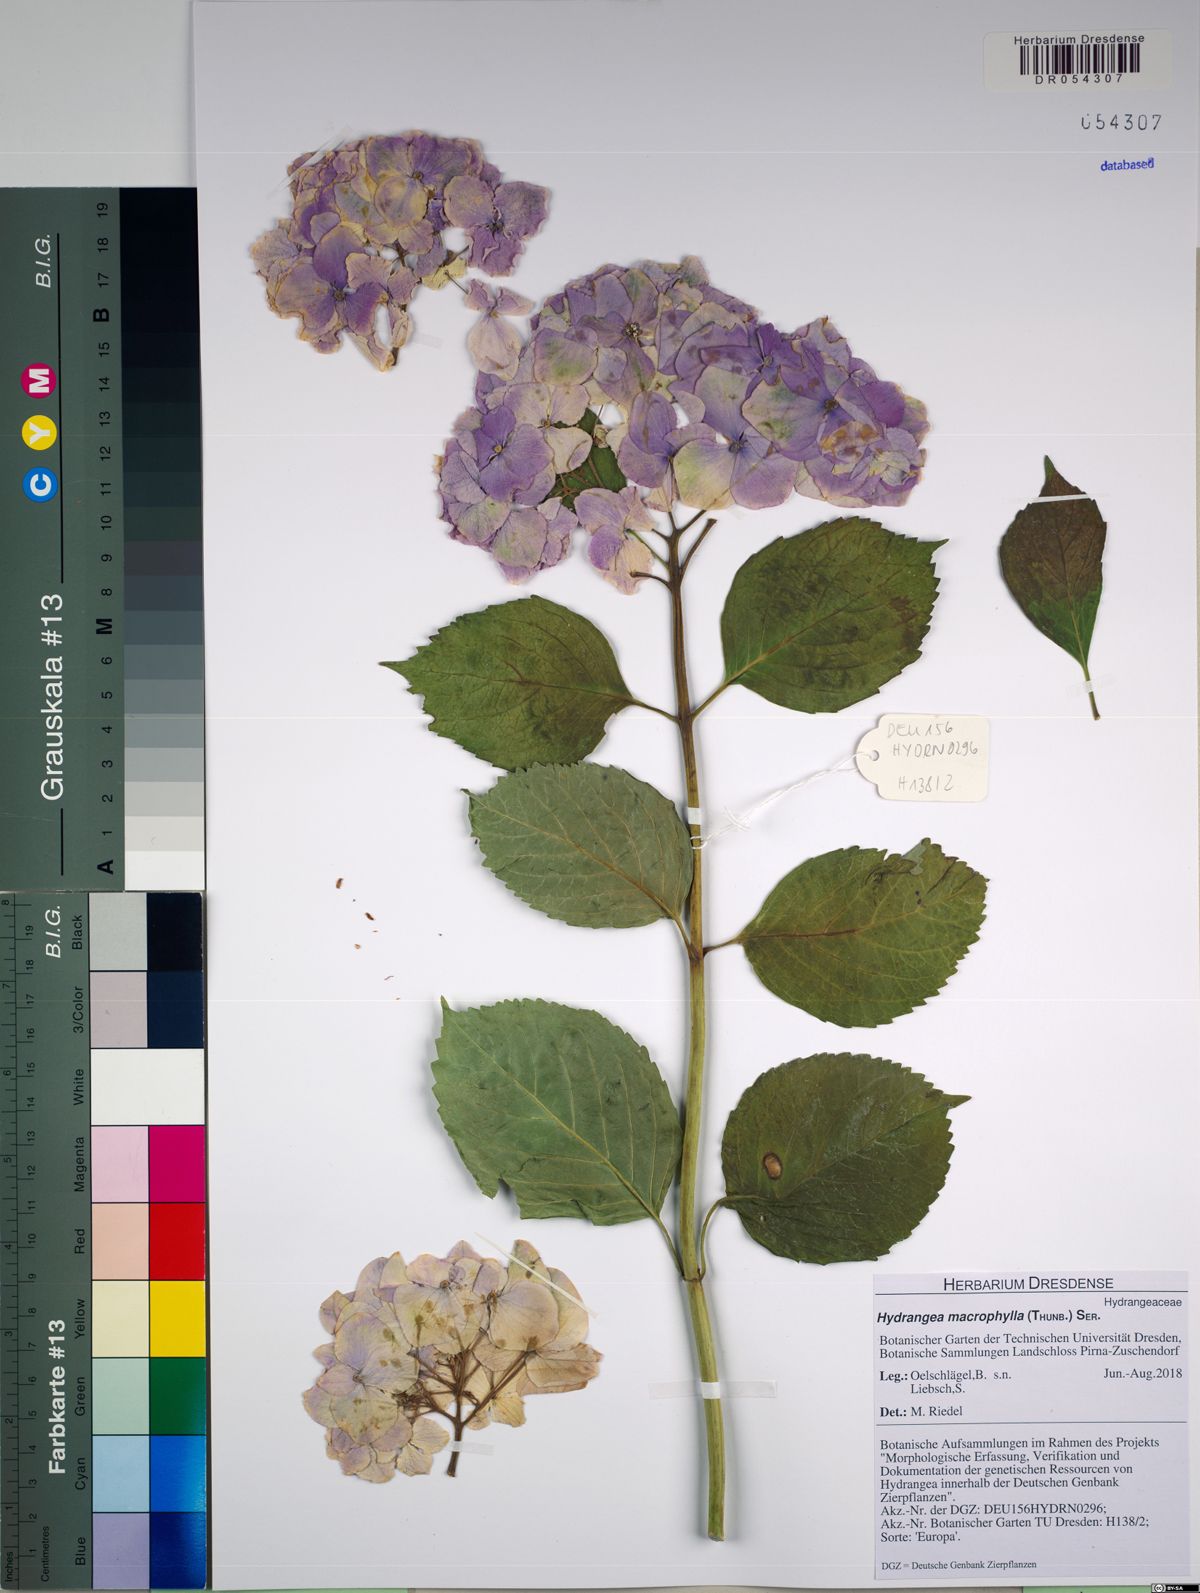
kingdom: Plantae
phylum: Tracheophyta
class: Magnoliopsida
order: Cornales
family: Hydrangeaceae
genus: Hydrangea
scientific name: Hydrangea macrophylla
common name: Hydrangea
